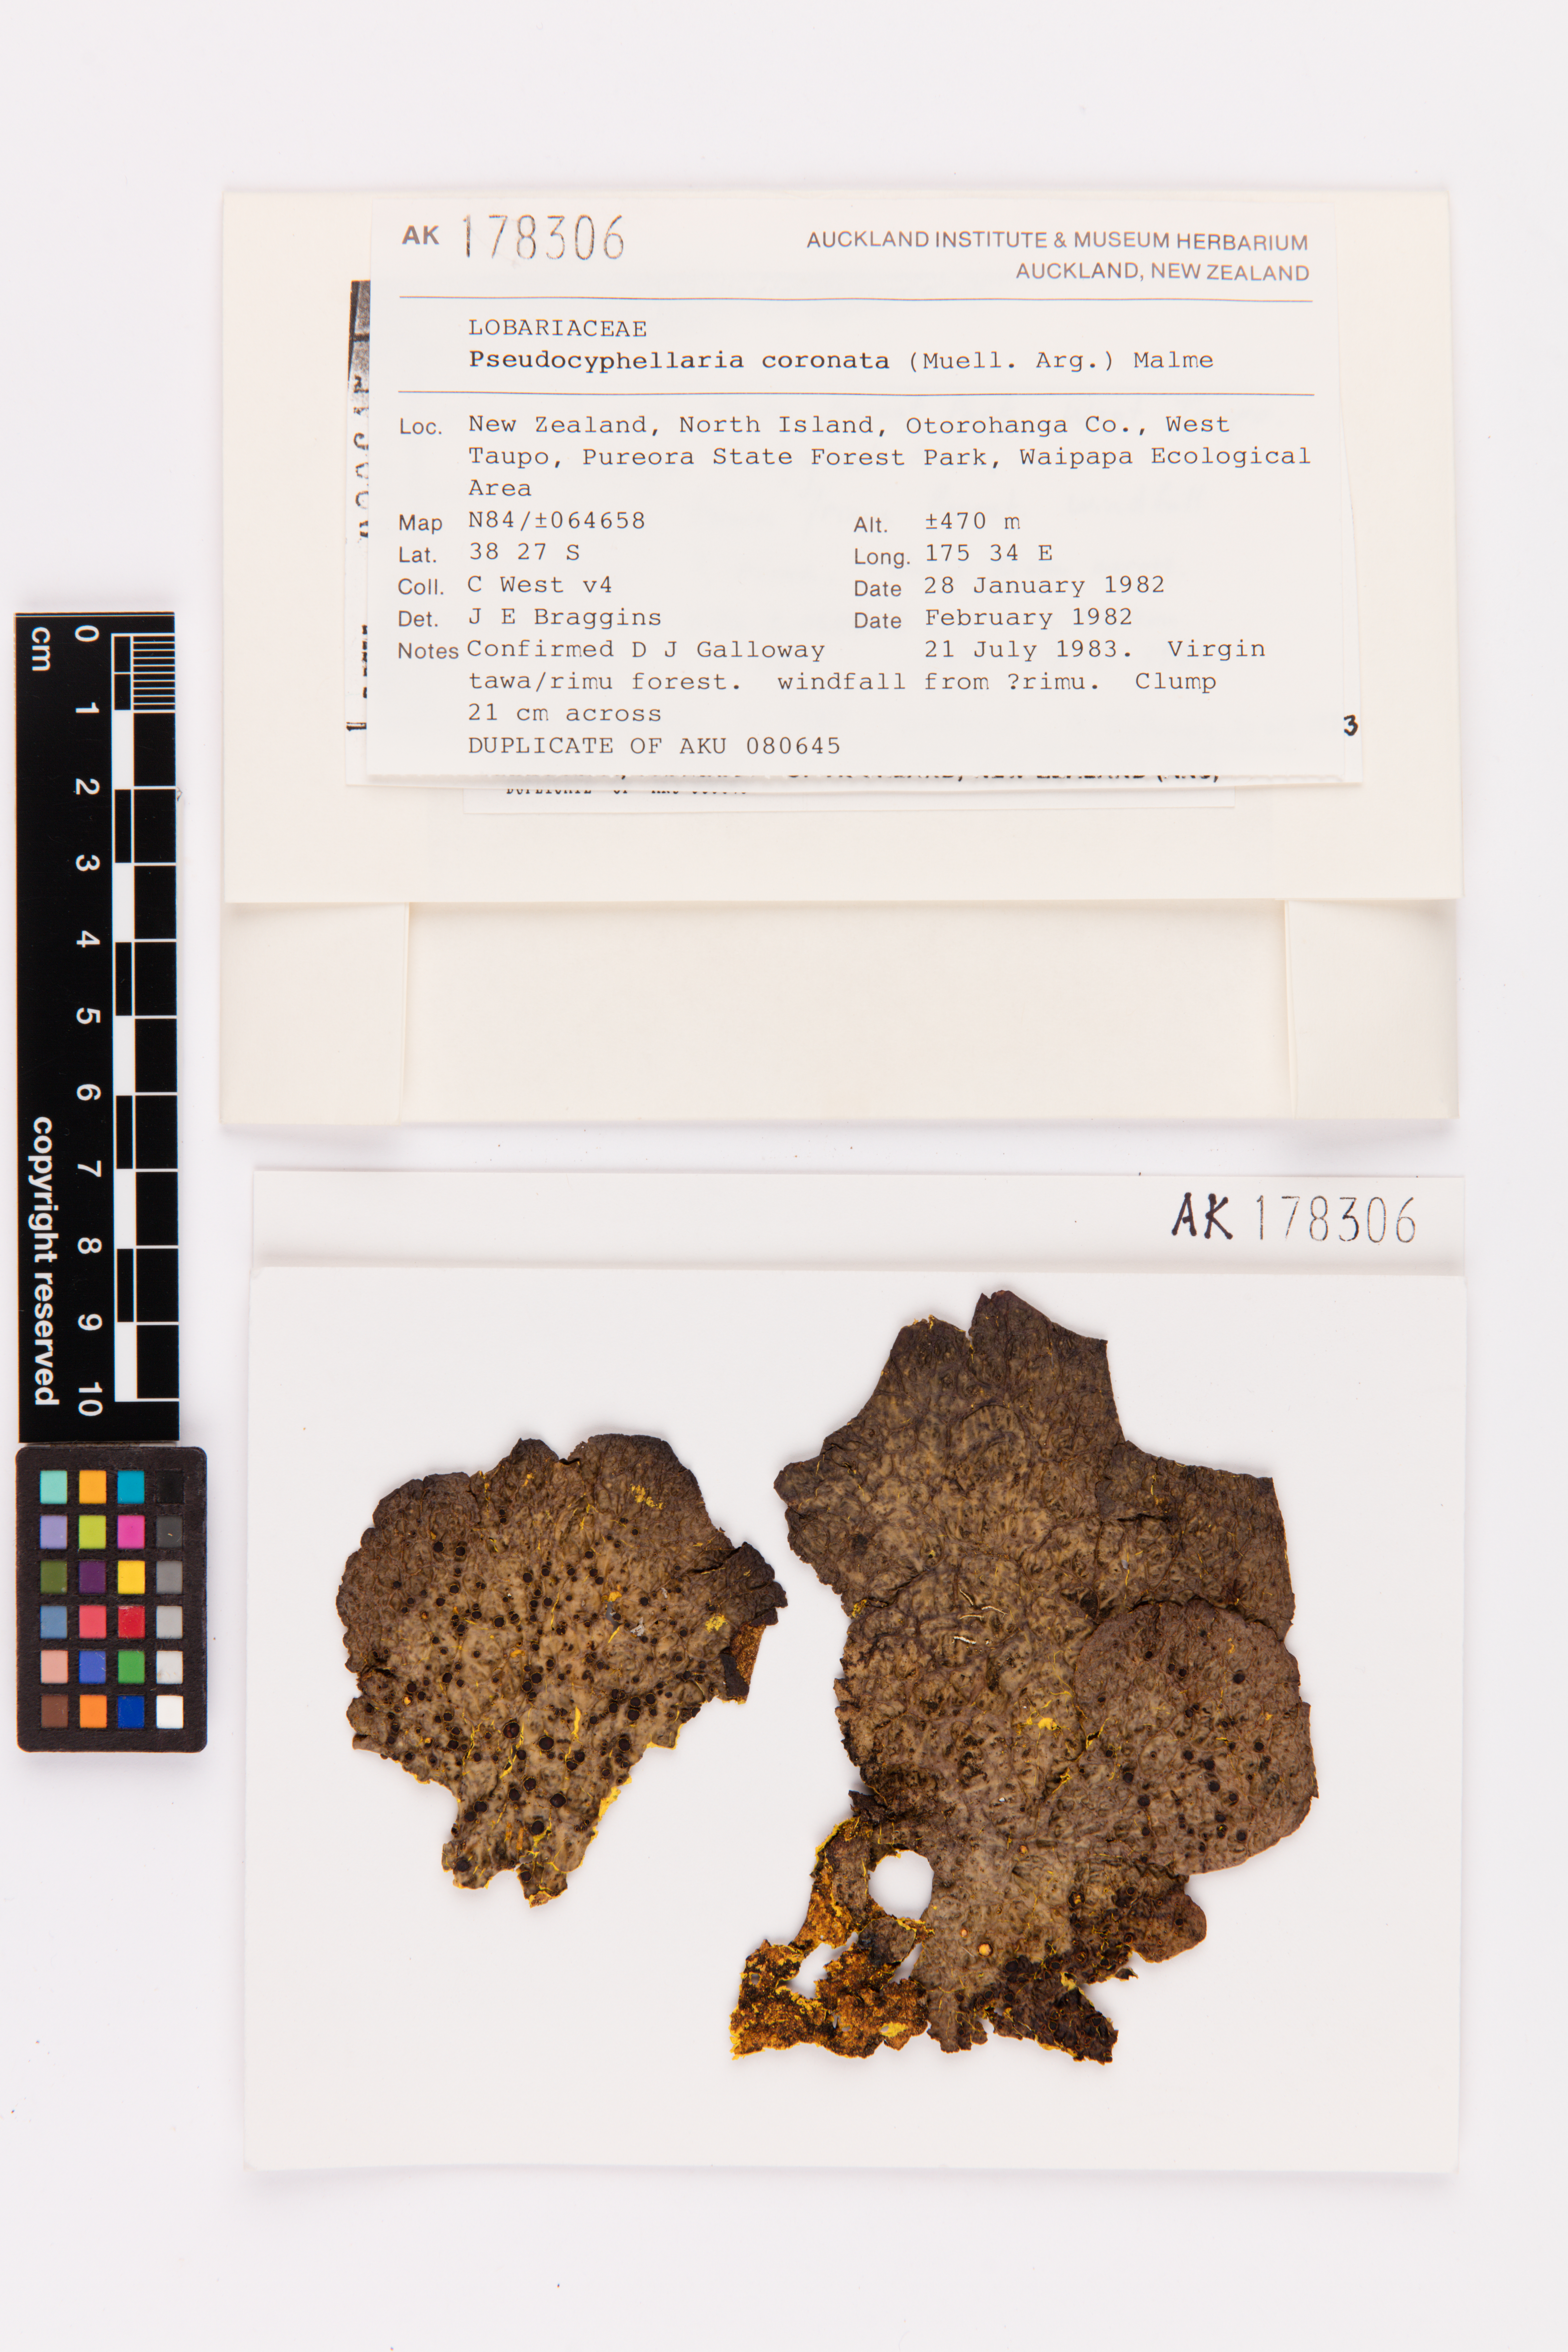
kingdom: Fungi
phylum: Ascomycota
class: Lecanoromycetes
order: Peltigerales
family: Lobariaceae
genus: Yarrumia
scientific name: Yarrumia coronata
